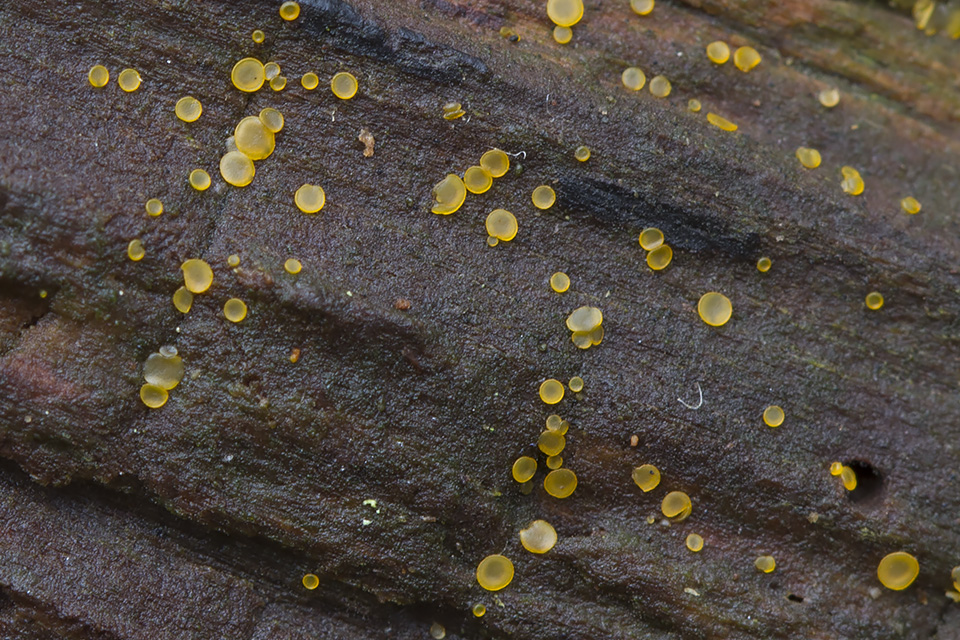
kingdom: Fungi
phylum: Ascomycota
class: Orbiliomycetes
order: Orbiliales
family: Orbiliaceae
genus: Orbilia
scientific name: Orbilia xanthostigma
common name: krumsporet voksskive
